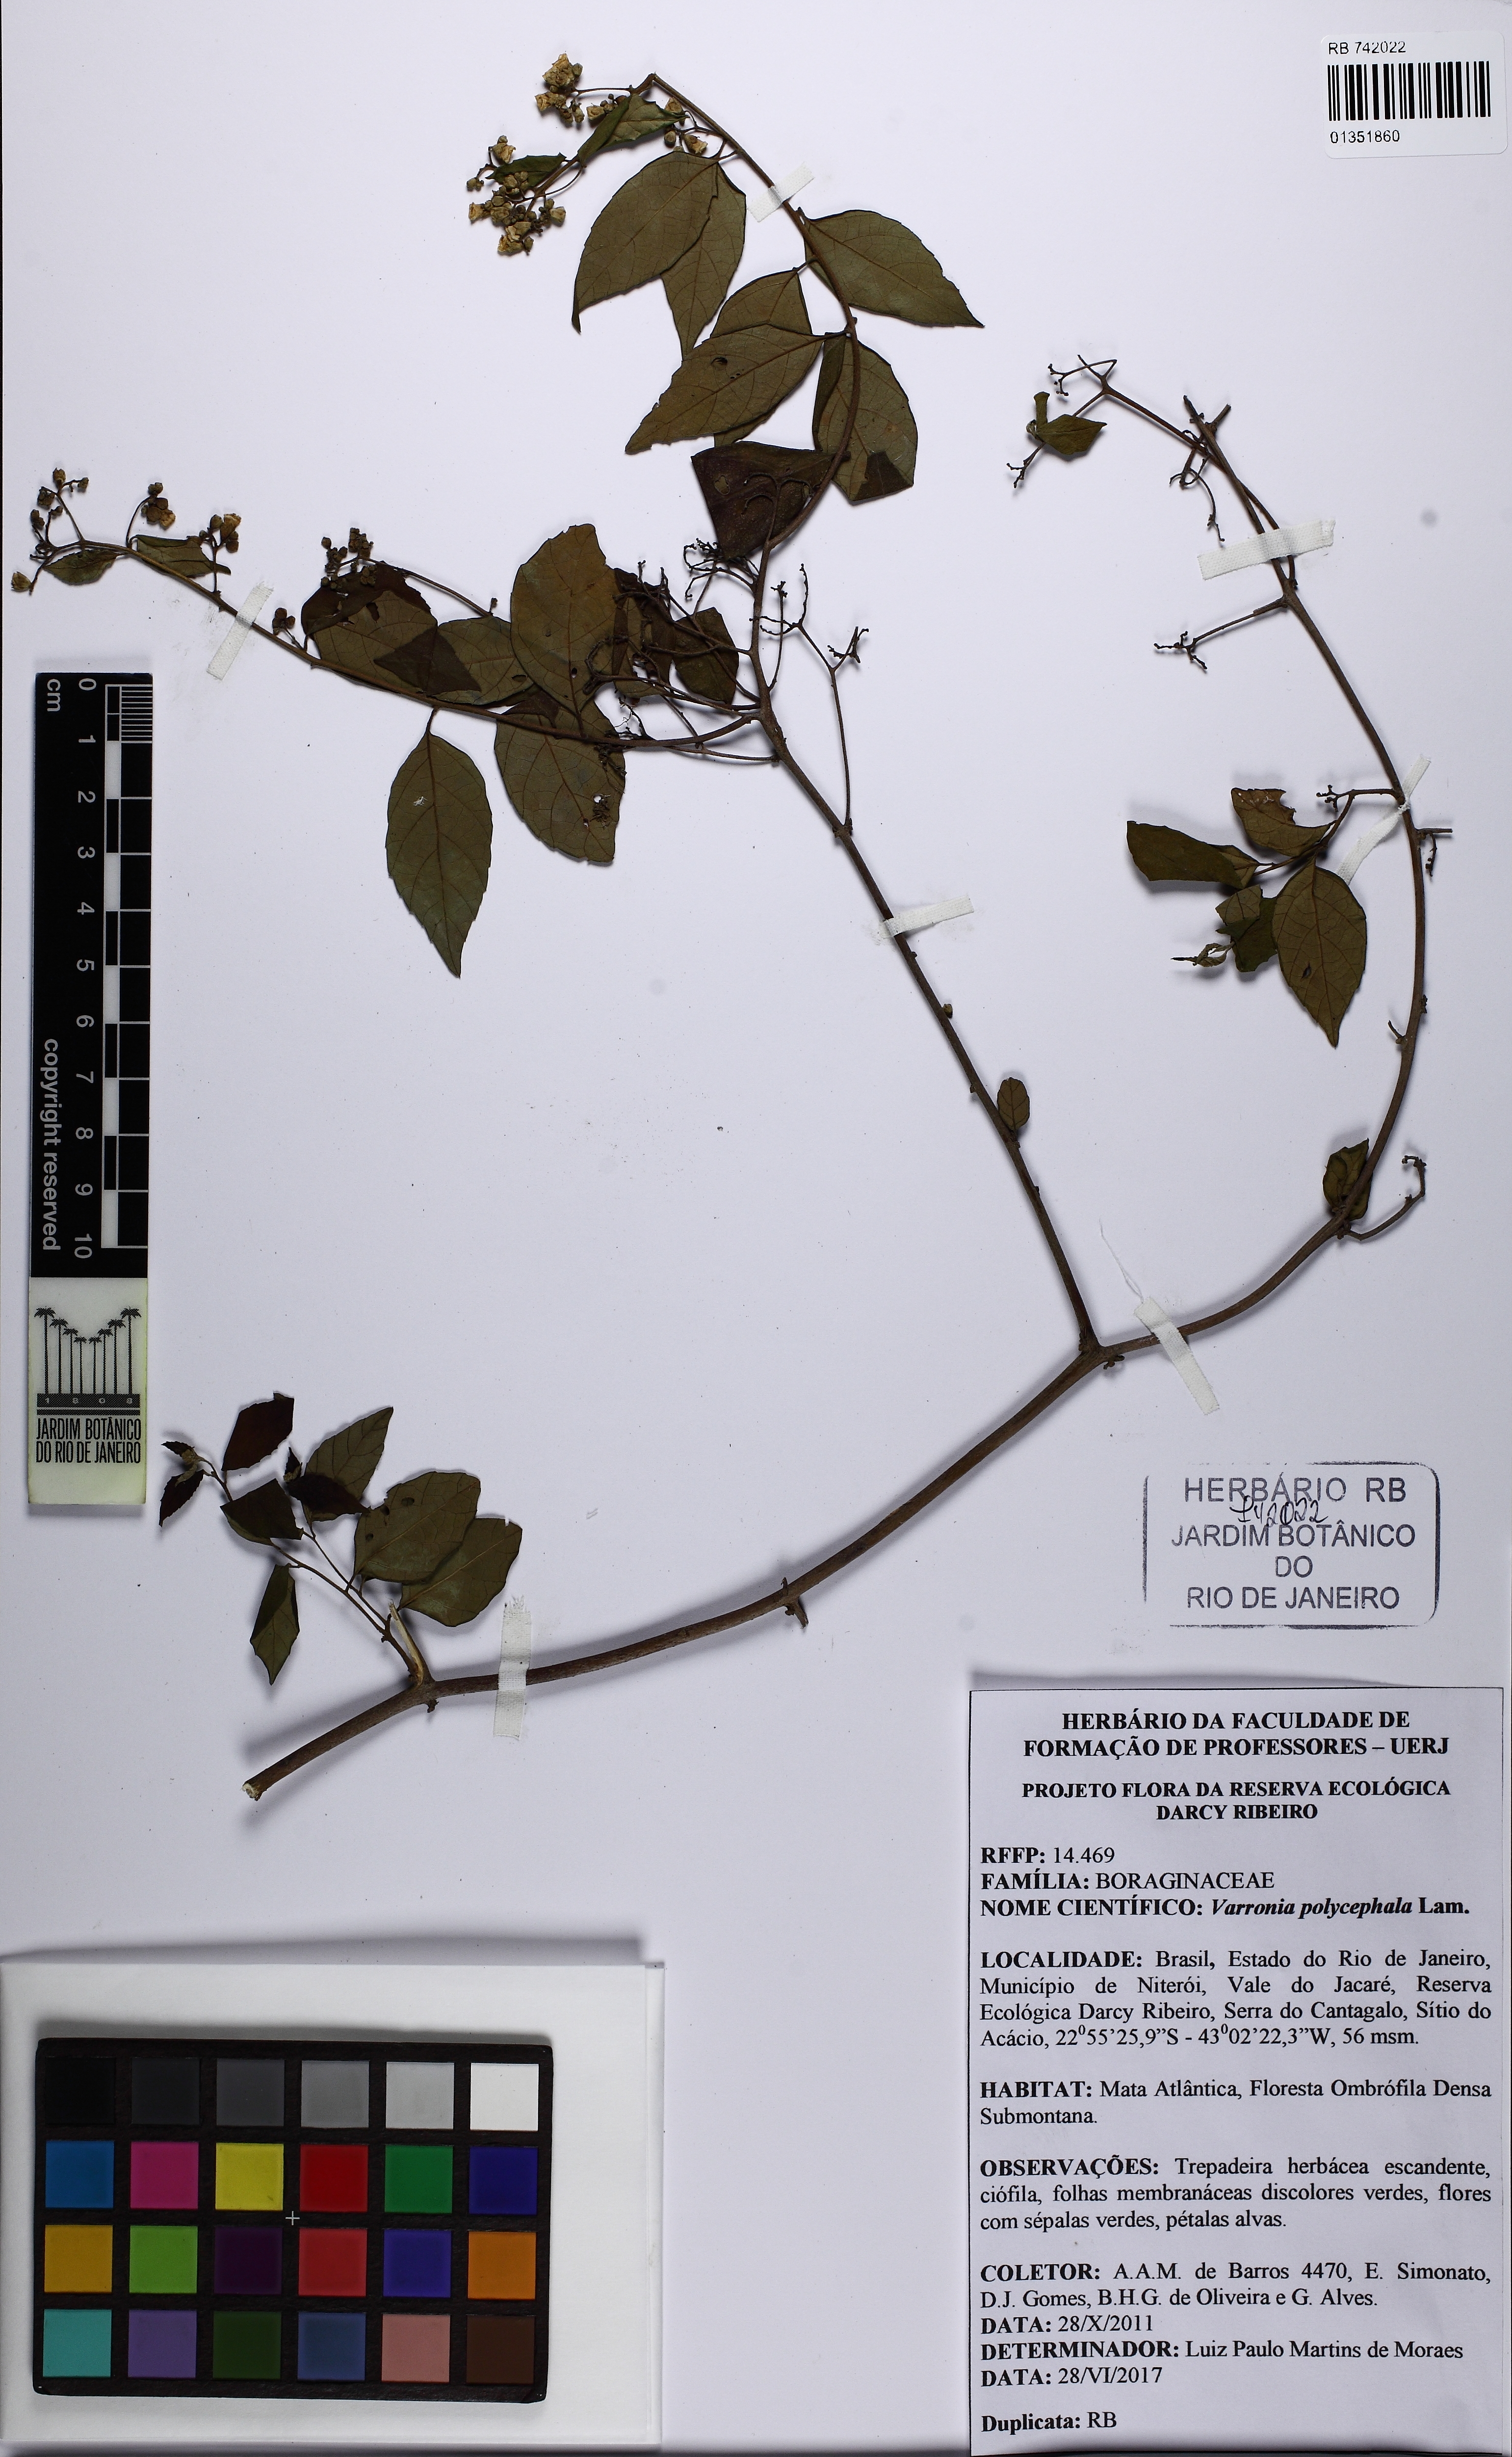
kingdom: Plantae
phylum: Tracheophyta
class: Magnoliopsida
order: Boraginales
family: Cordiaceae
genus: Varronia
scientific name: Varronia polycephala
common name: Black-sage
